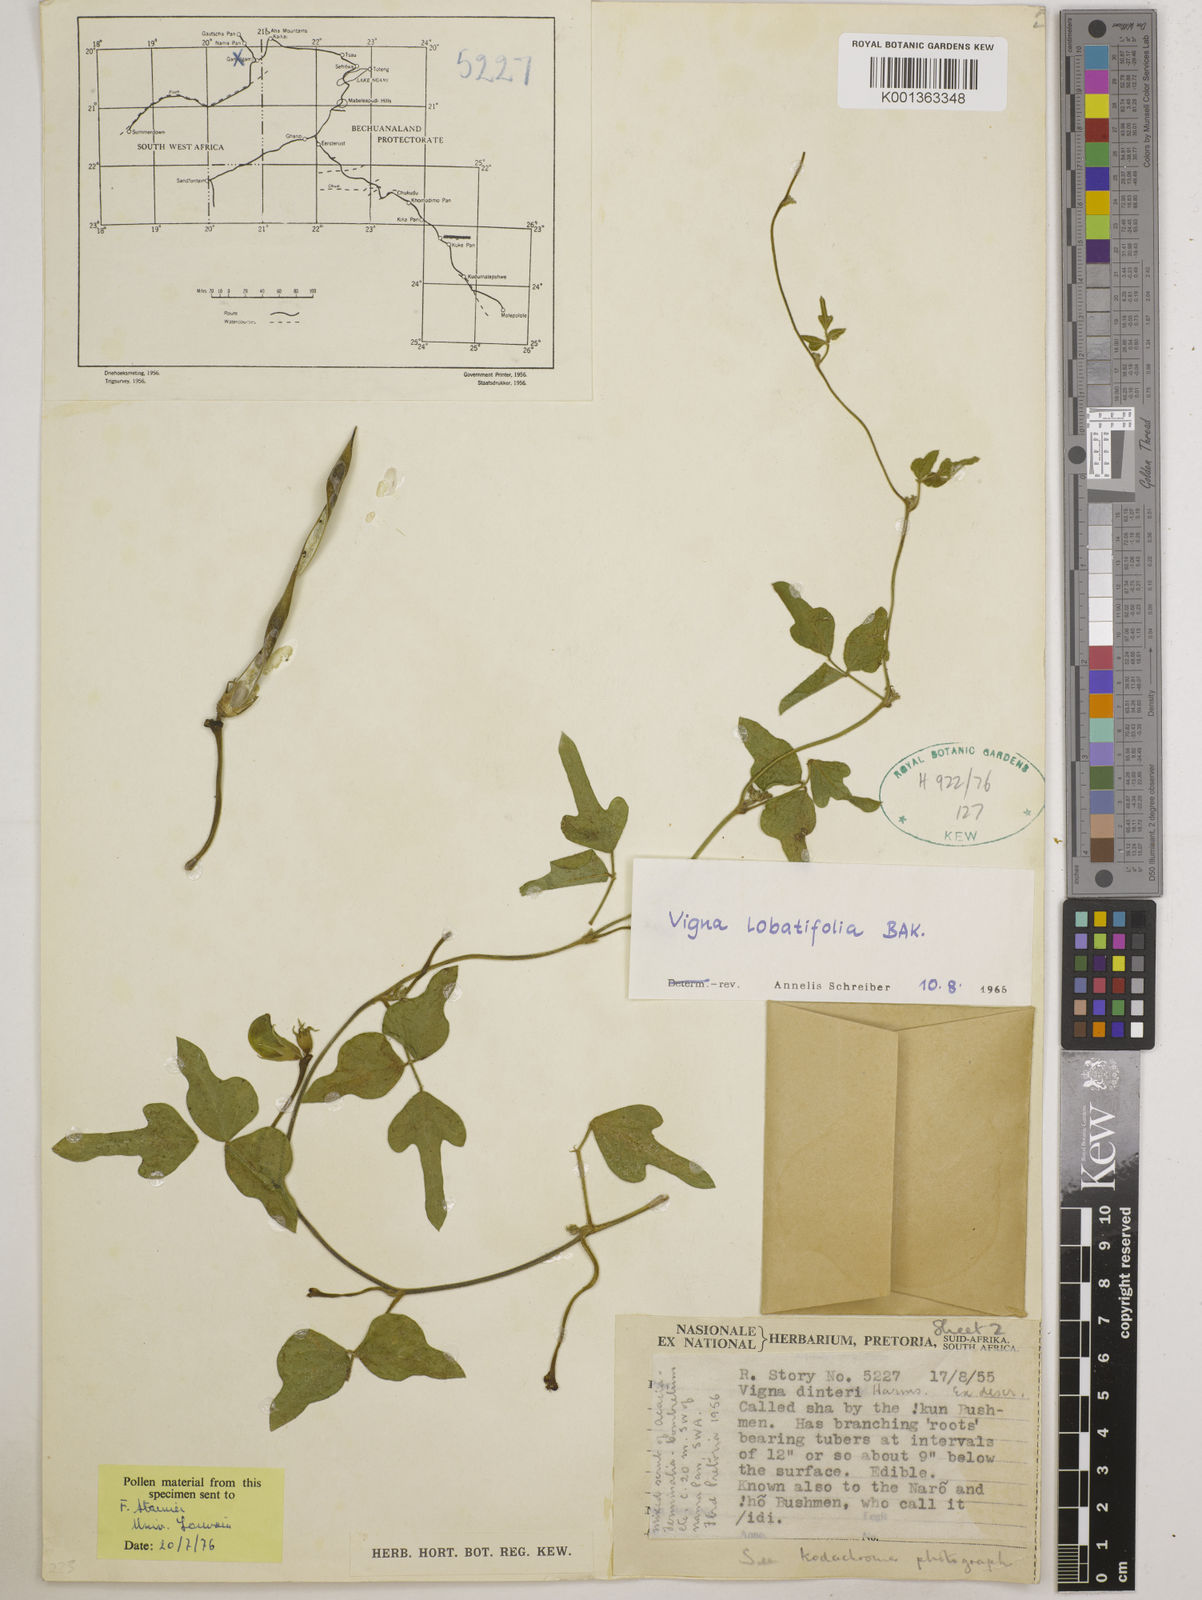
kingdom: Plantae
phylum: Tracheophyta
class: Magnoliopsida
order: Fabales
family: Fabaceae
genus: Vigna
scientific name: Vigna lobatifolia
